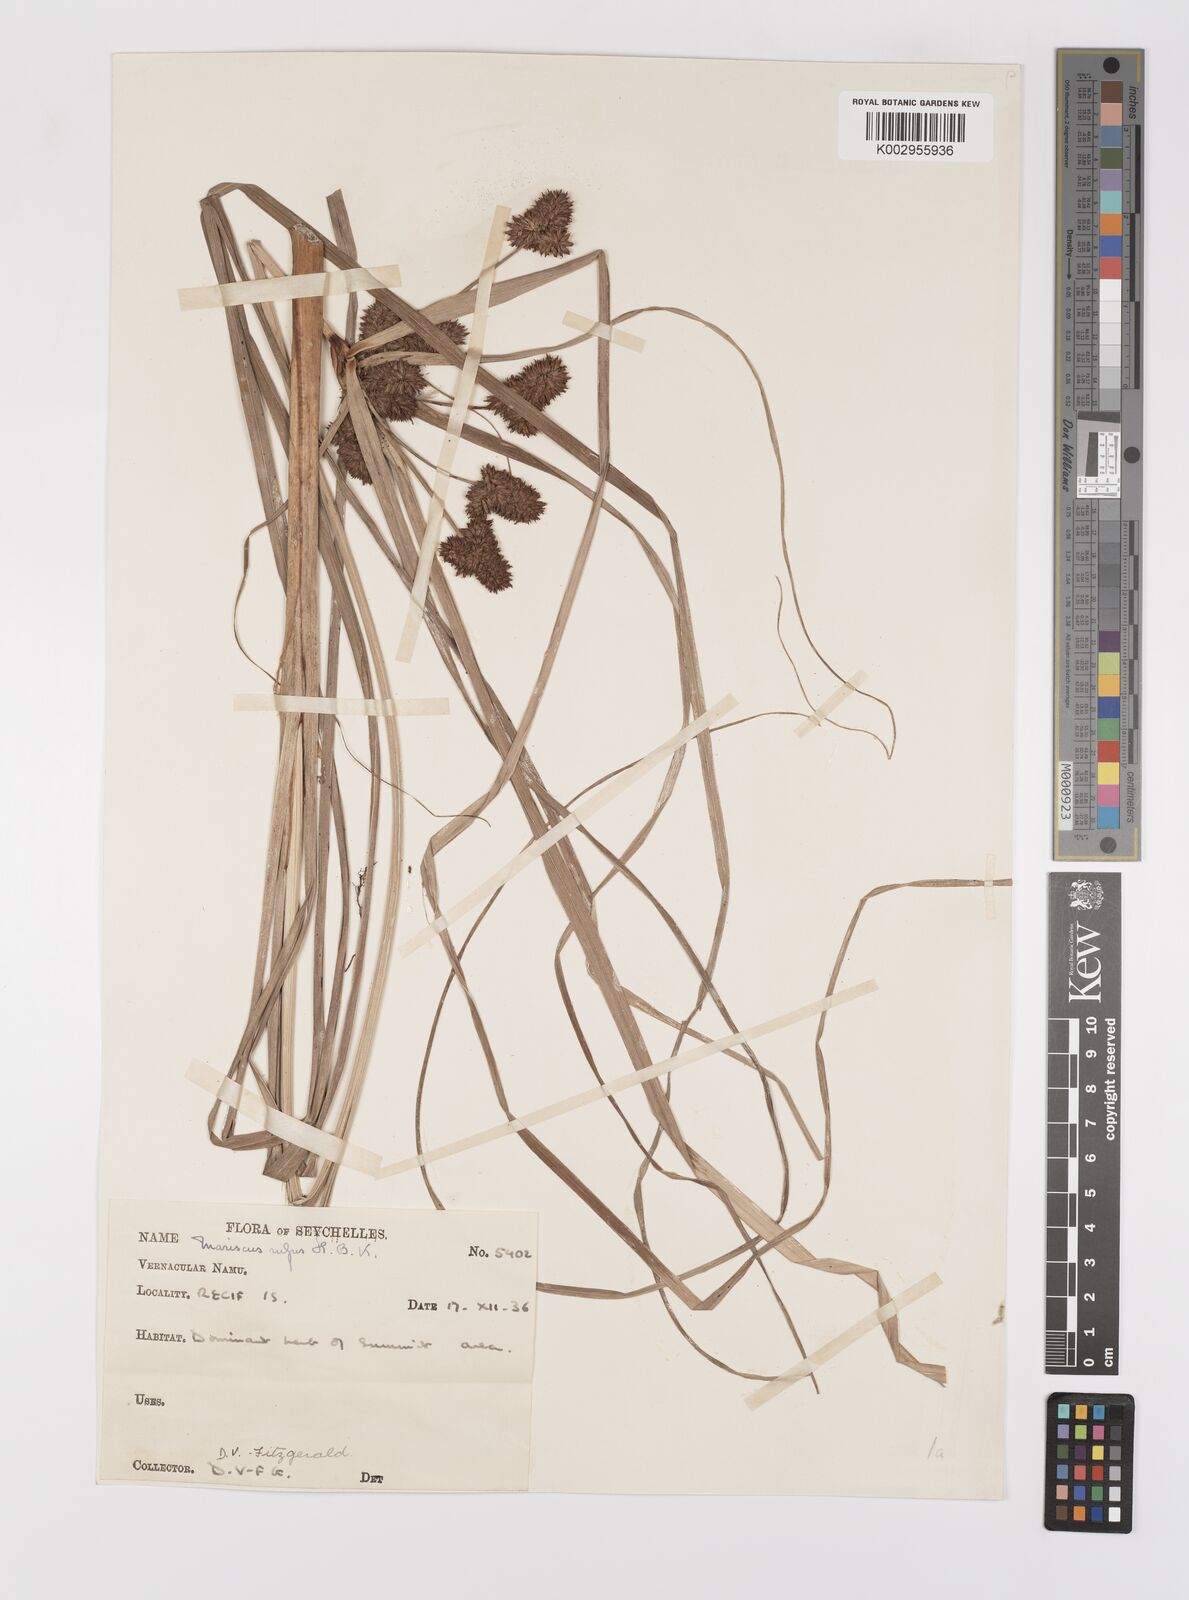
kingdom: Plantae
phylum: Tracheophyta
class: Liliopsida
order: Poales
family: Cyperaceae
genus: Cyperus
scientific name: Cyperus ligularis
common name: Swamp flat sedge
